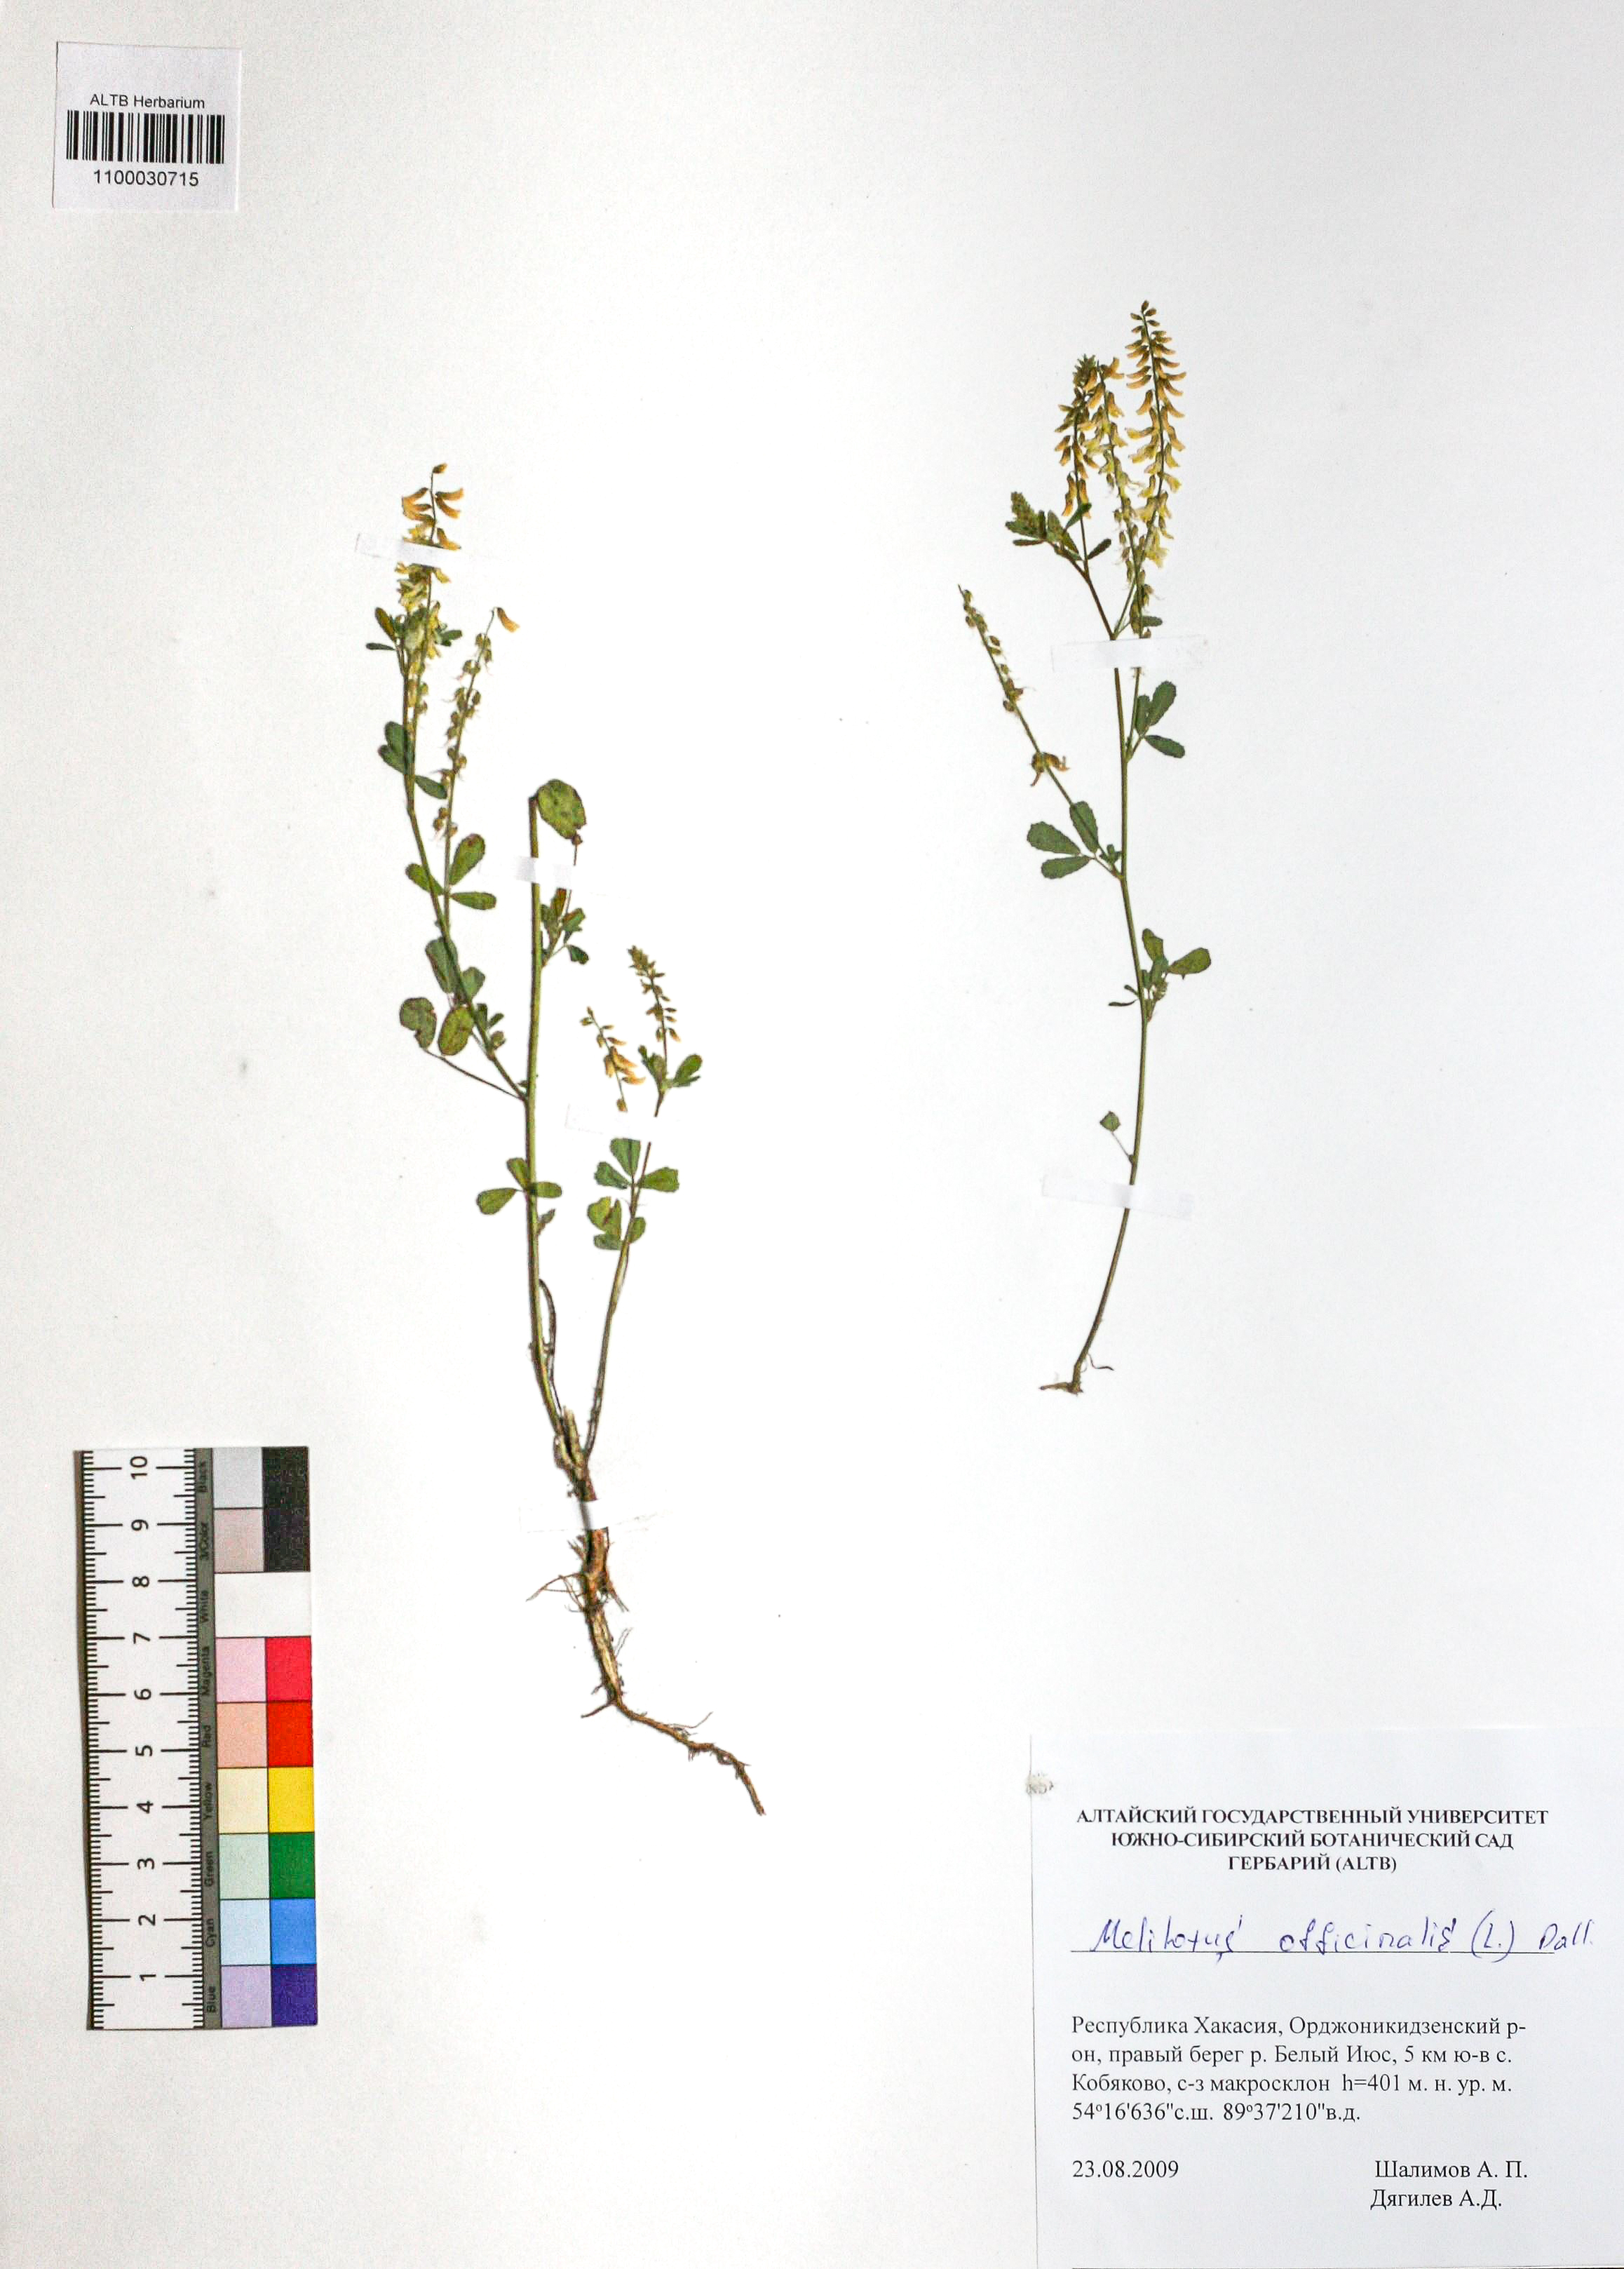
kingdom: Plantae
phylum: Tracheophyta
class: Magnoliopsida
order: Fabales
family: Fabaceae
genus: Melilotus
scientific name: Melilotus officinalis
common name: Sweetclover
